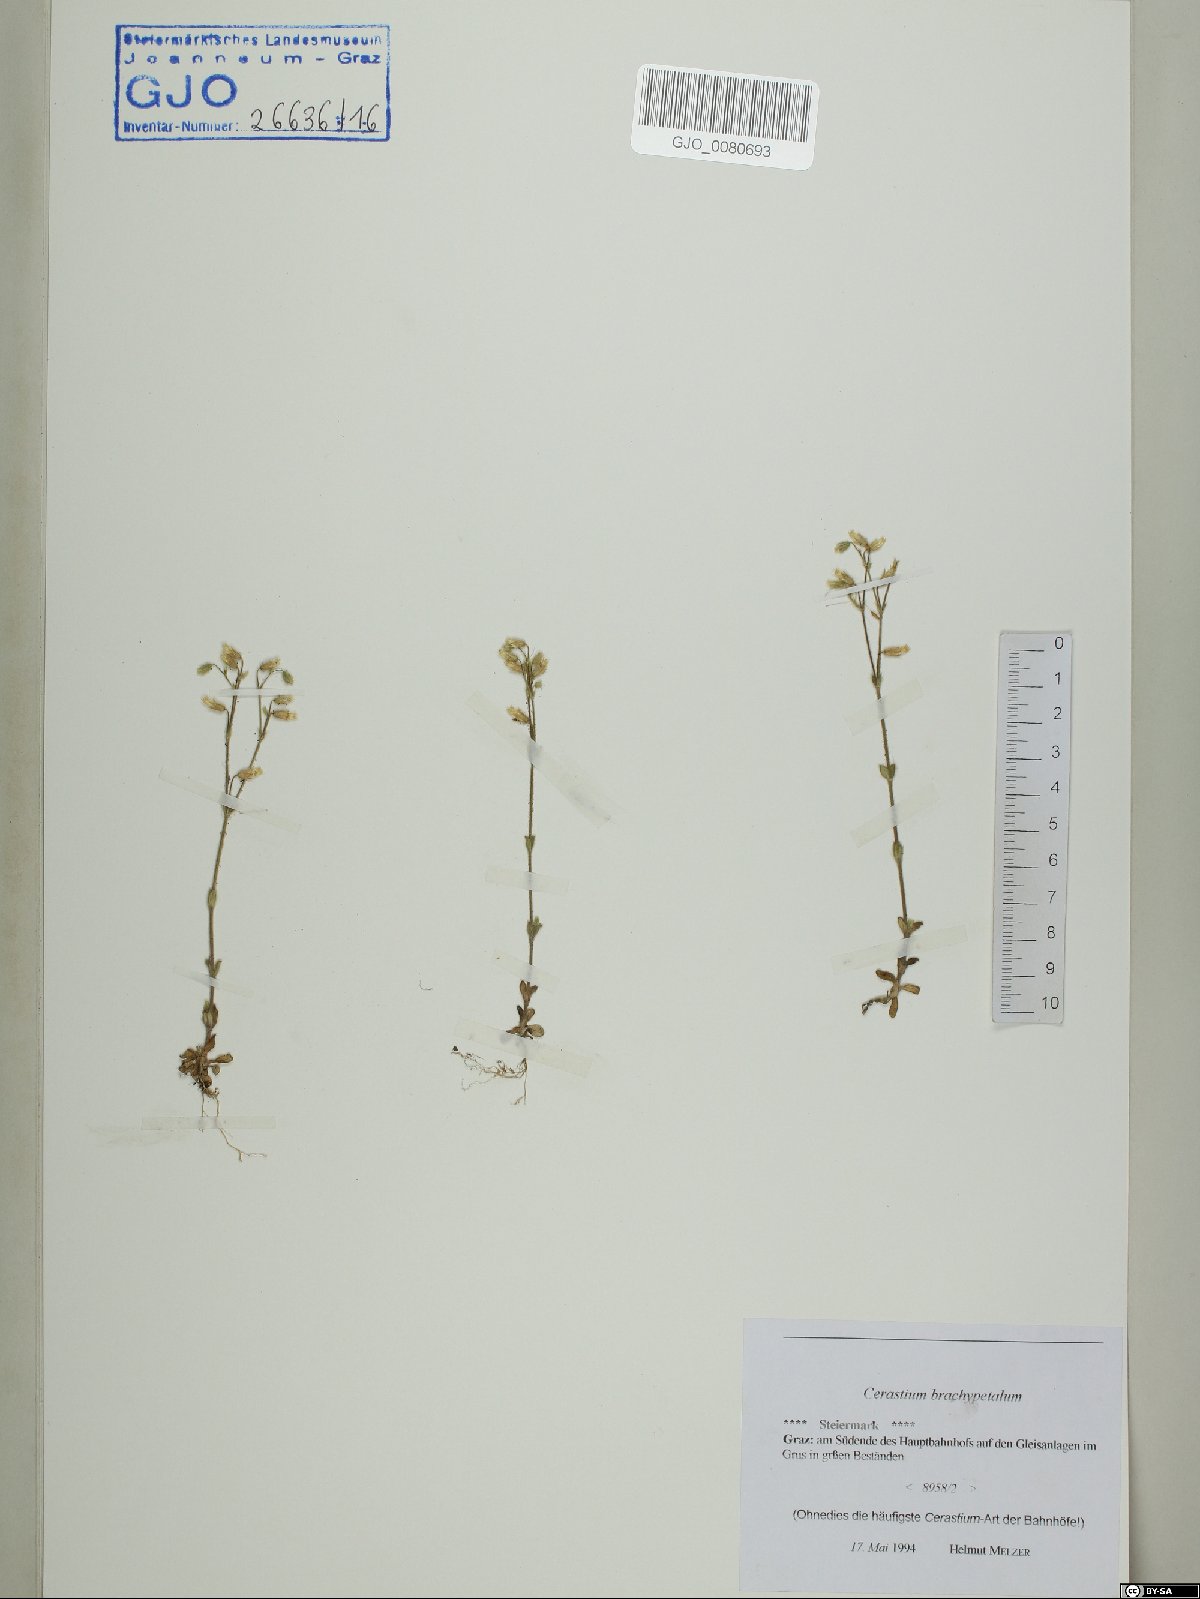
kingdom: Plantae
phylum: Tracheophyta
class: Magnoliopsida
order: Caryophyllales
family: Caryophyllaceae
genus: Cerastium
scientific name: Cerastium brachypetalum
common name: Grey mouse-ear
